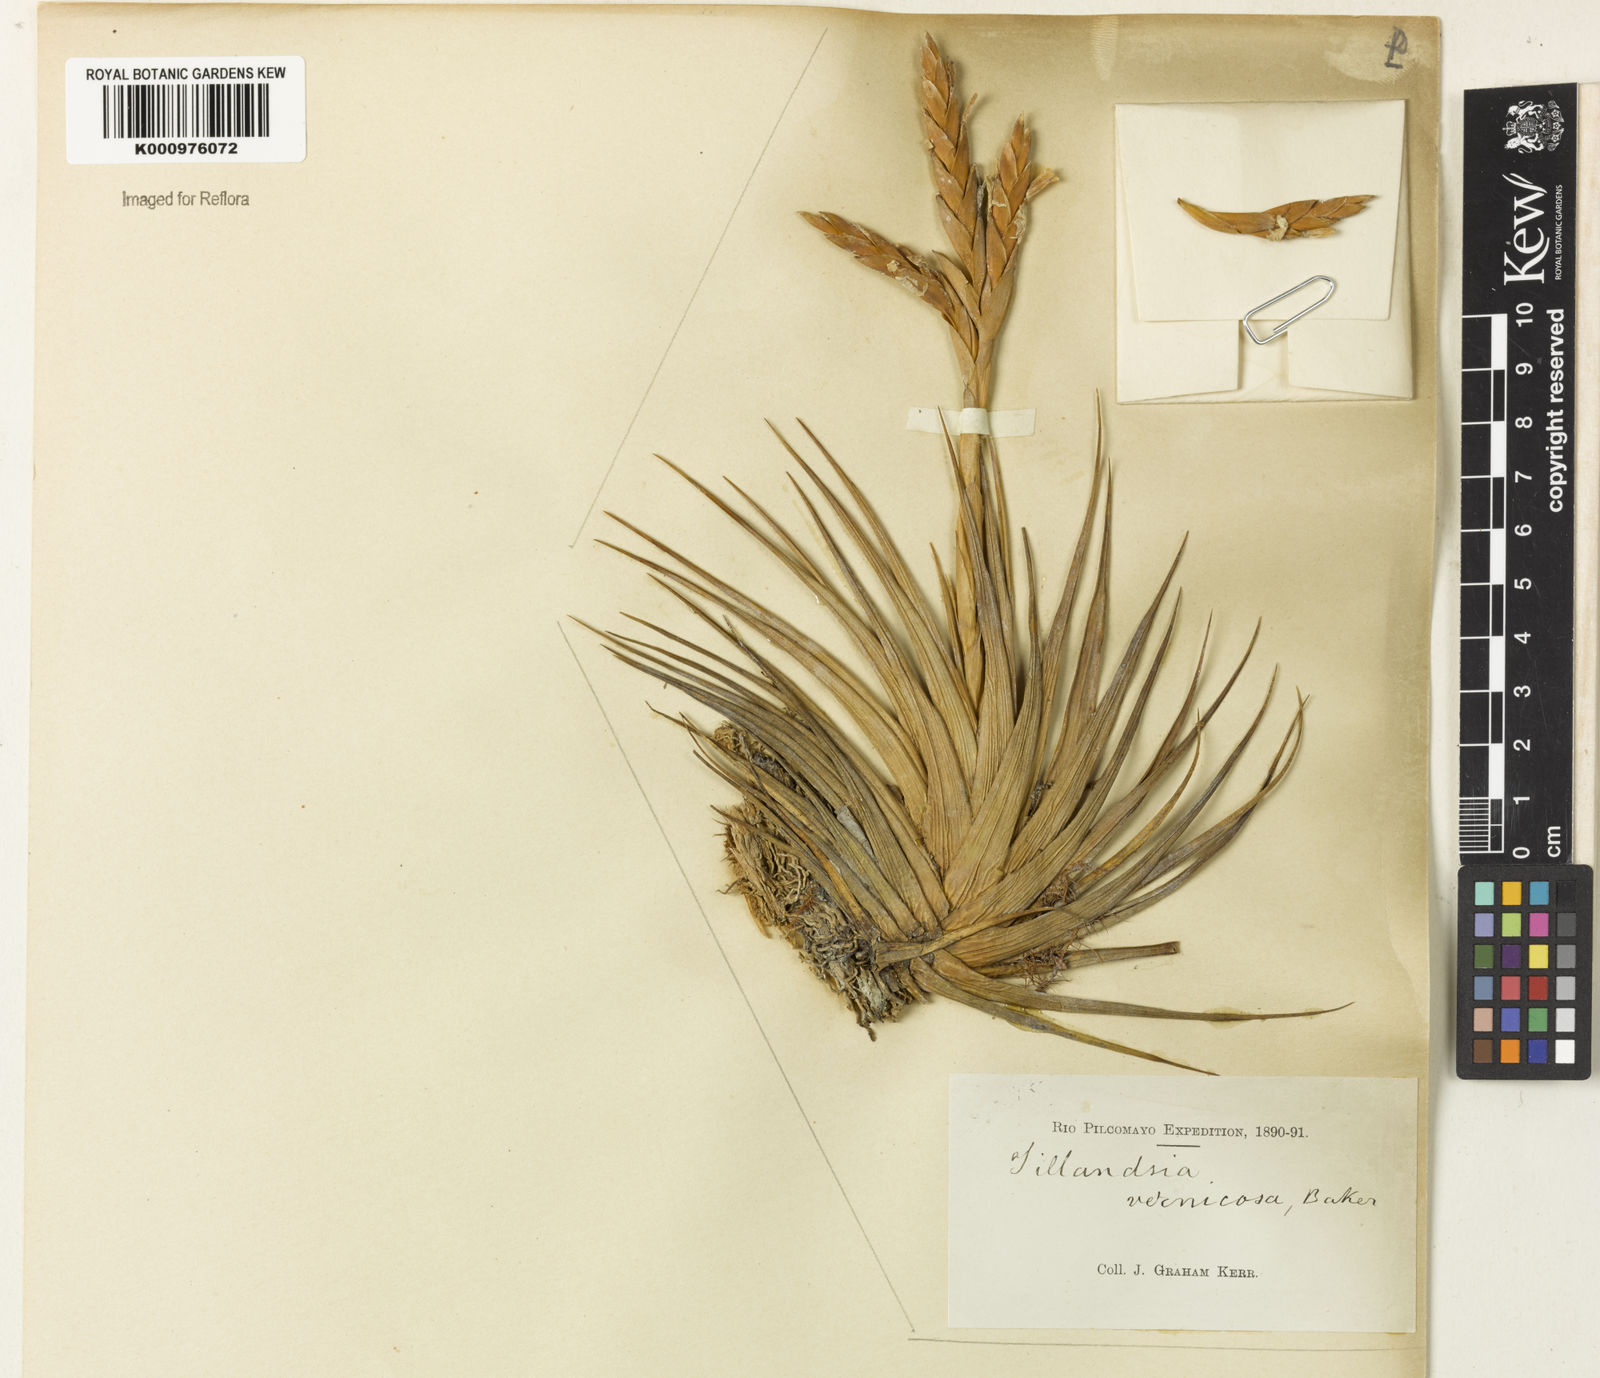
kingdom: Plantae
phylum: Tracheophyta
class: Liliopsida
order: Poales
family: Bromeliaceae
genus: Tillandsia
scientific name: Tillandsia vernicosa
